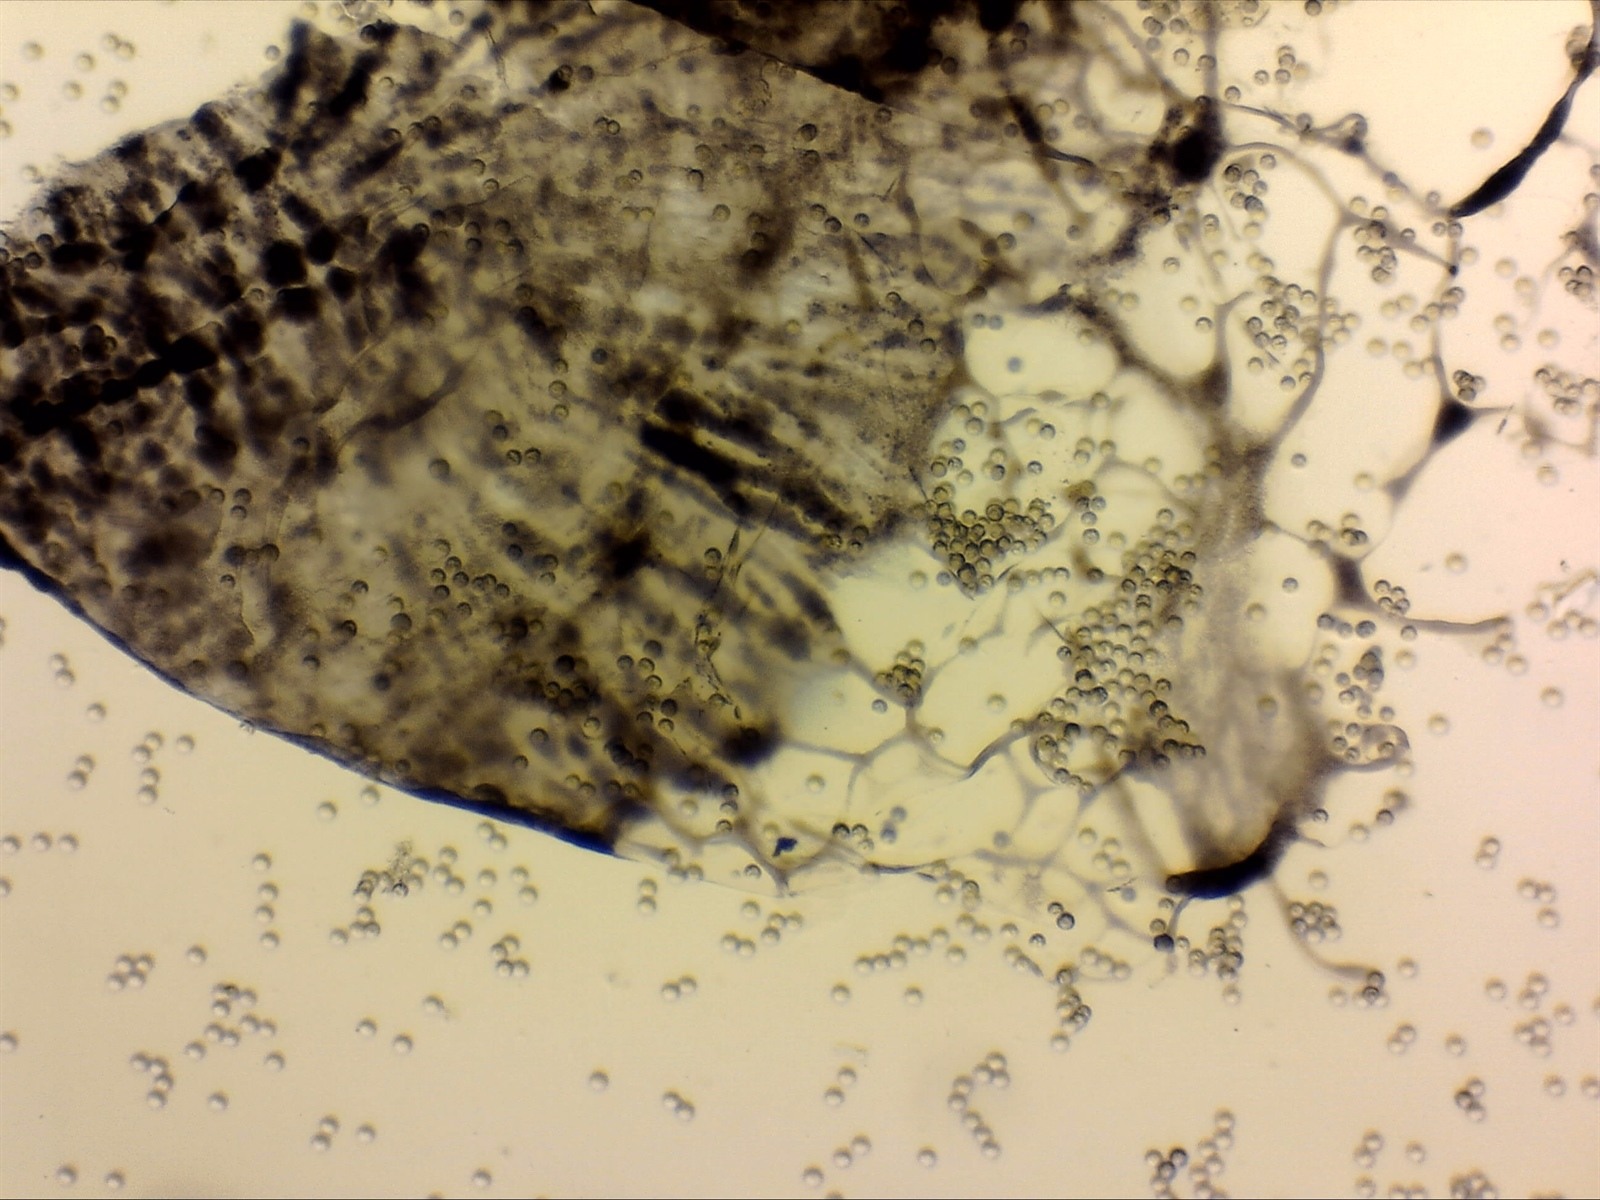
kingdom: Protozoa
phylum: Mycetozoa
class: Myxomycetes
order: Cribrariales
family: Cribrariaceae
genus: Cribraria
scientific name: Cribraria purpurea
